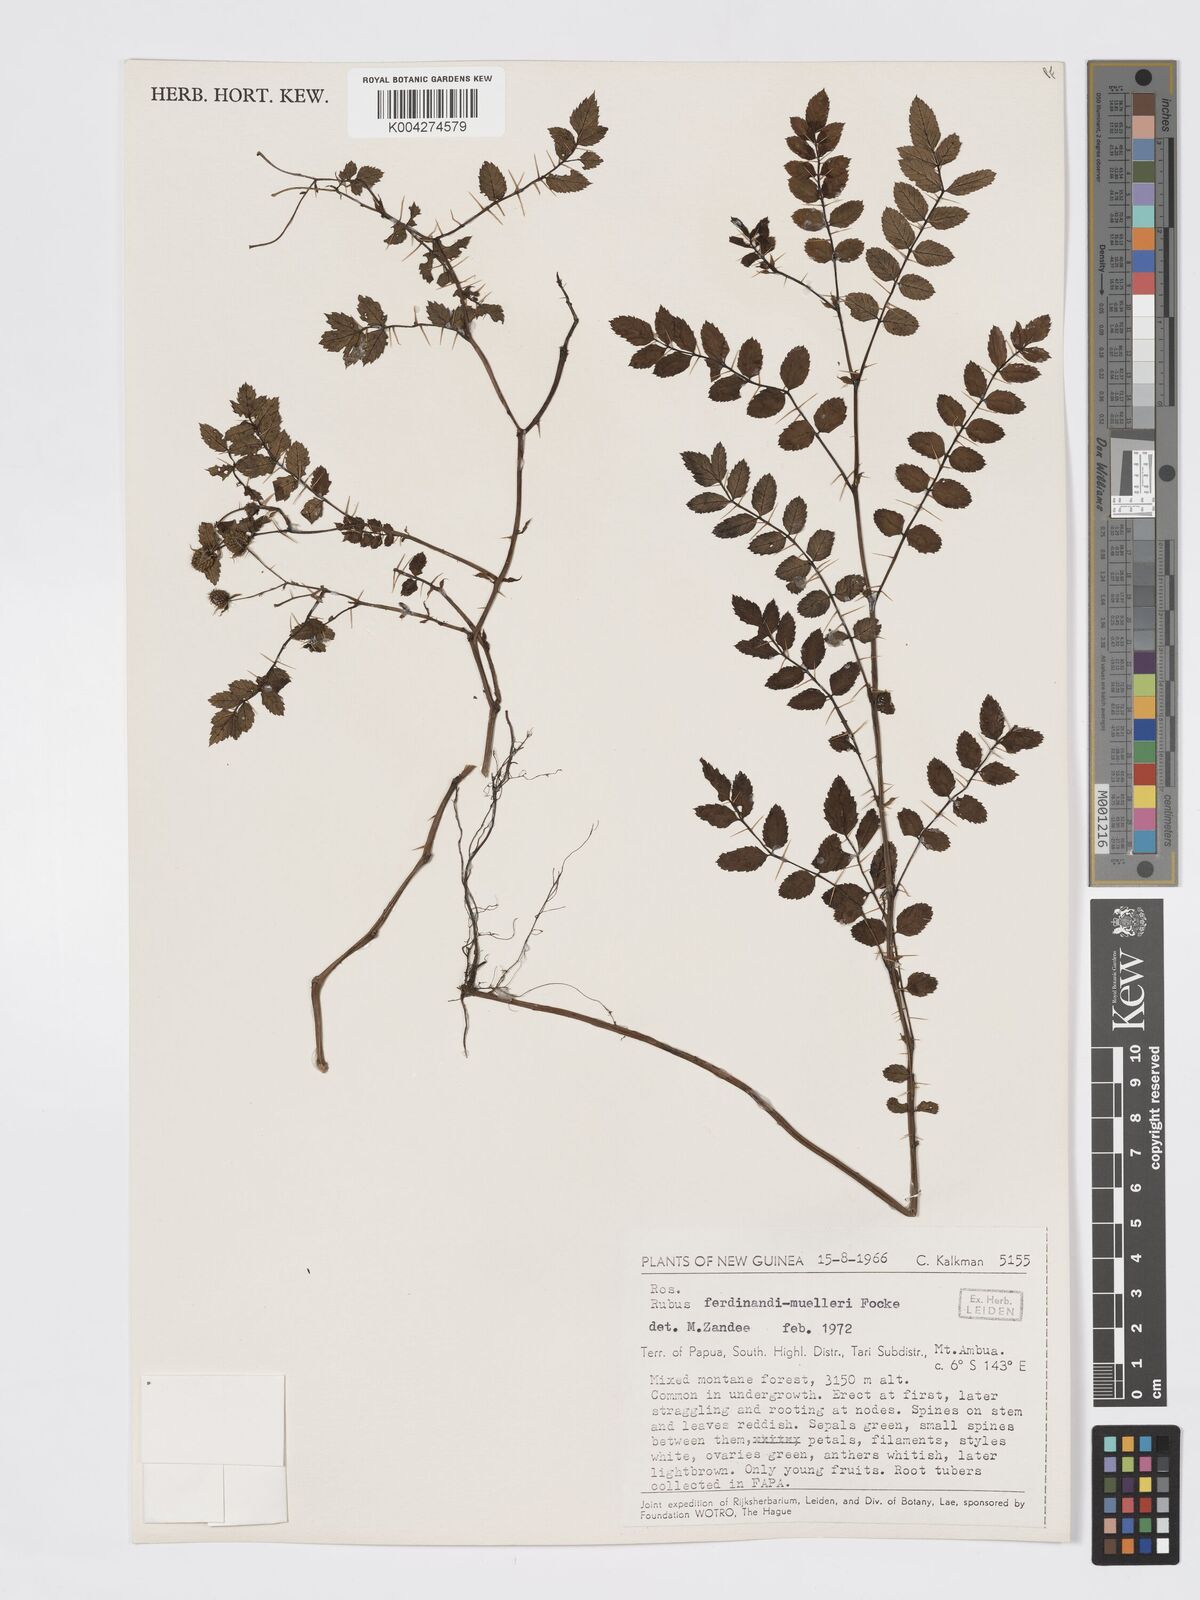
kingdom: Plantae
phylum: Tracheophyta
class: Magnoliopsida
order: Rosales
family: Rosaceae
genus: Rubus
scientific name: Rubus ferdinandimuelleri
